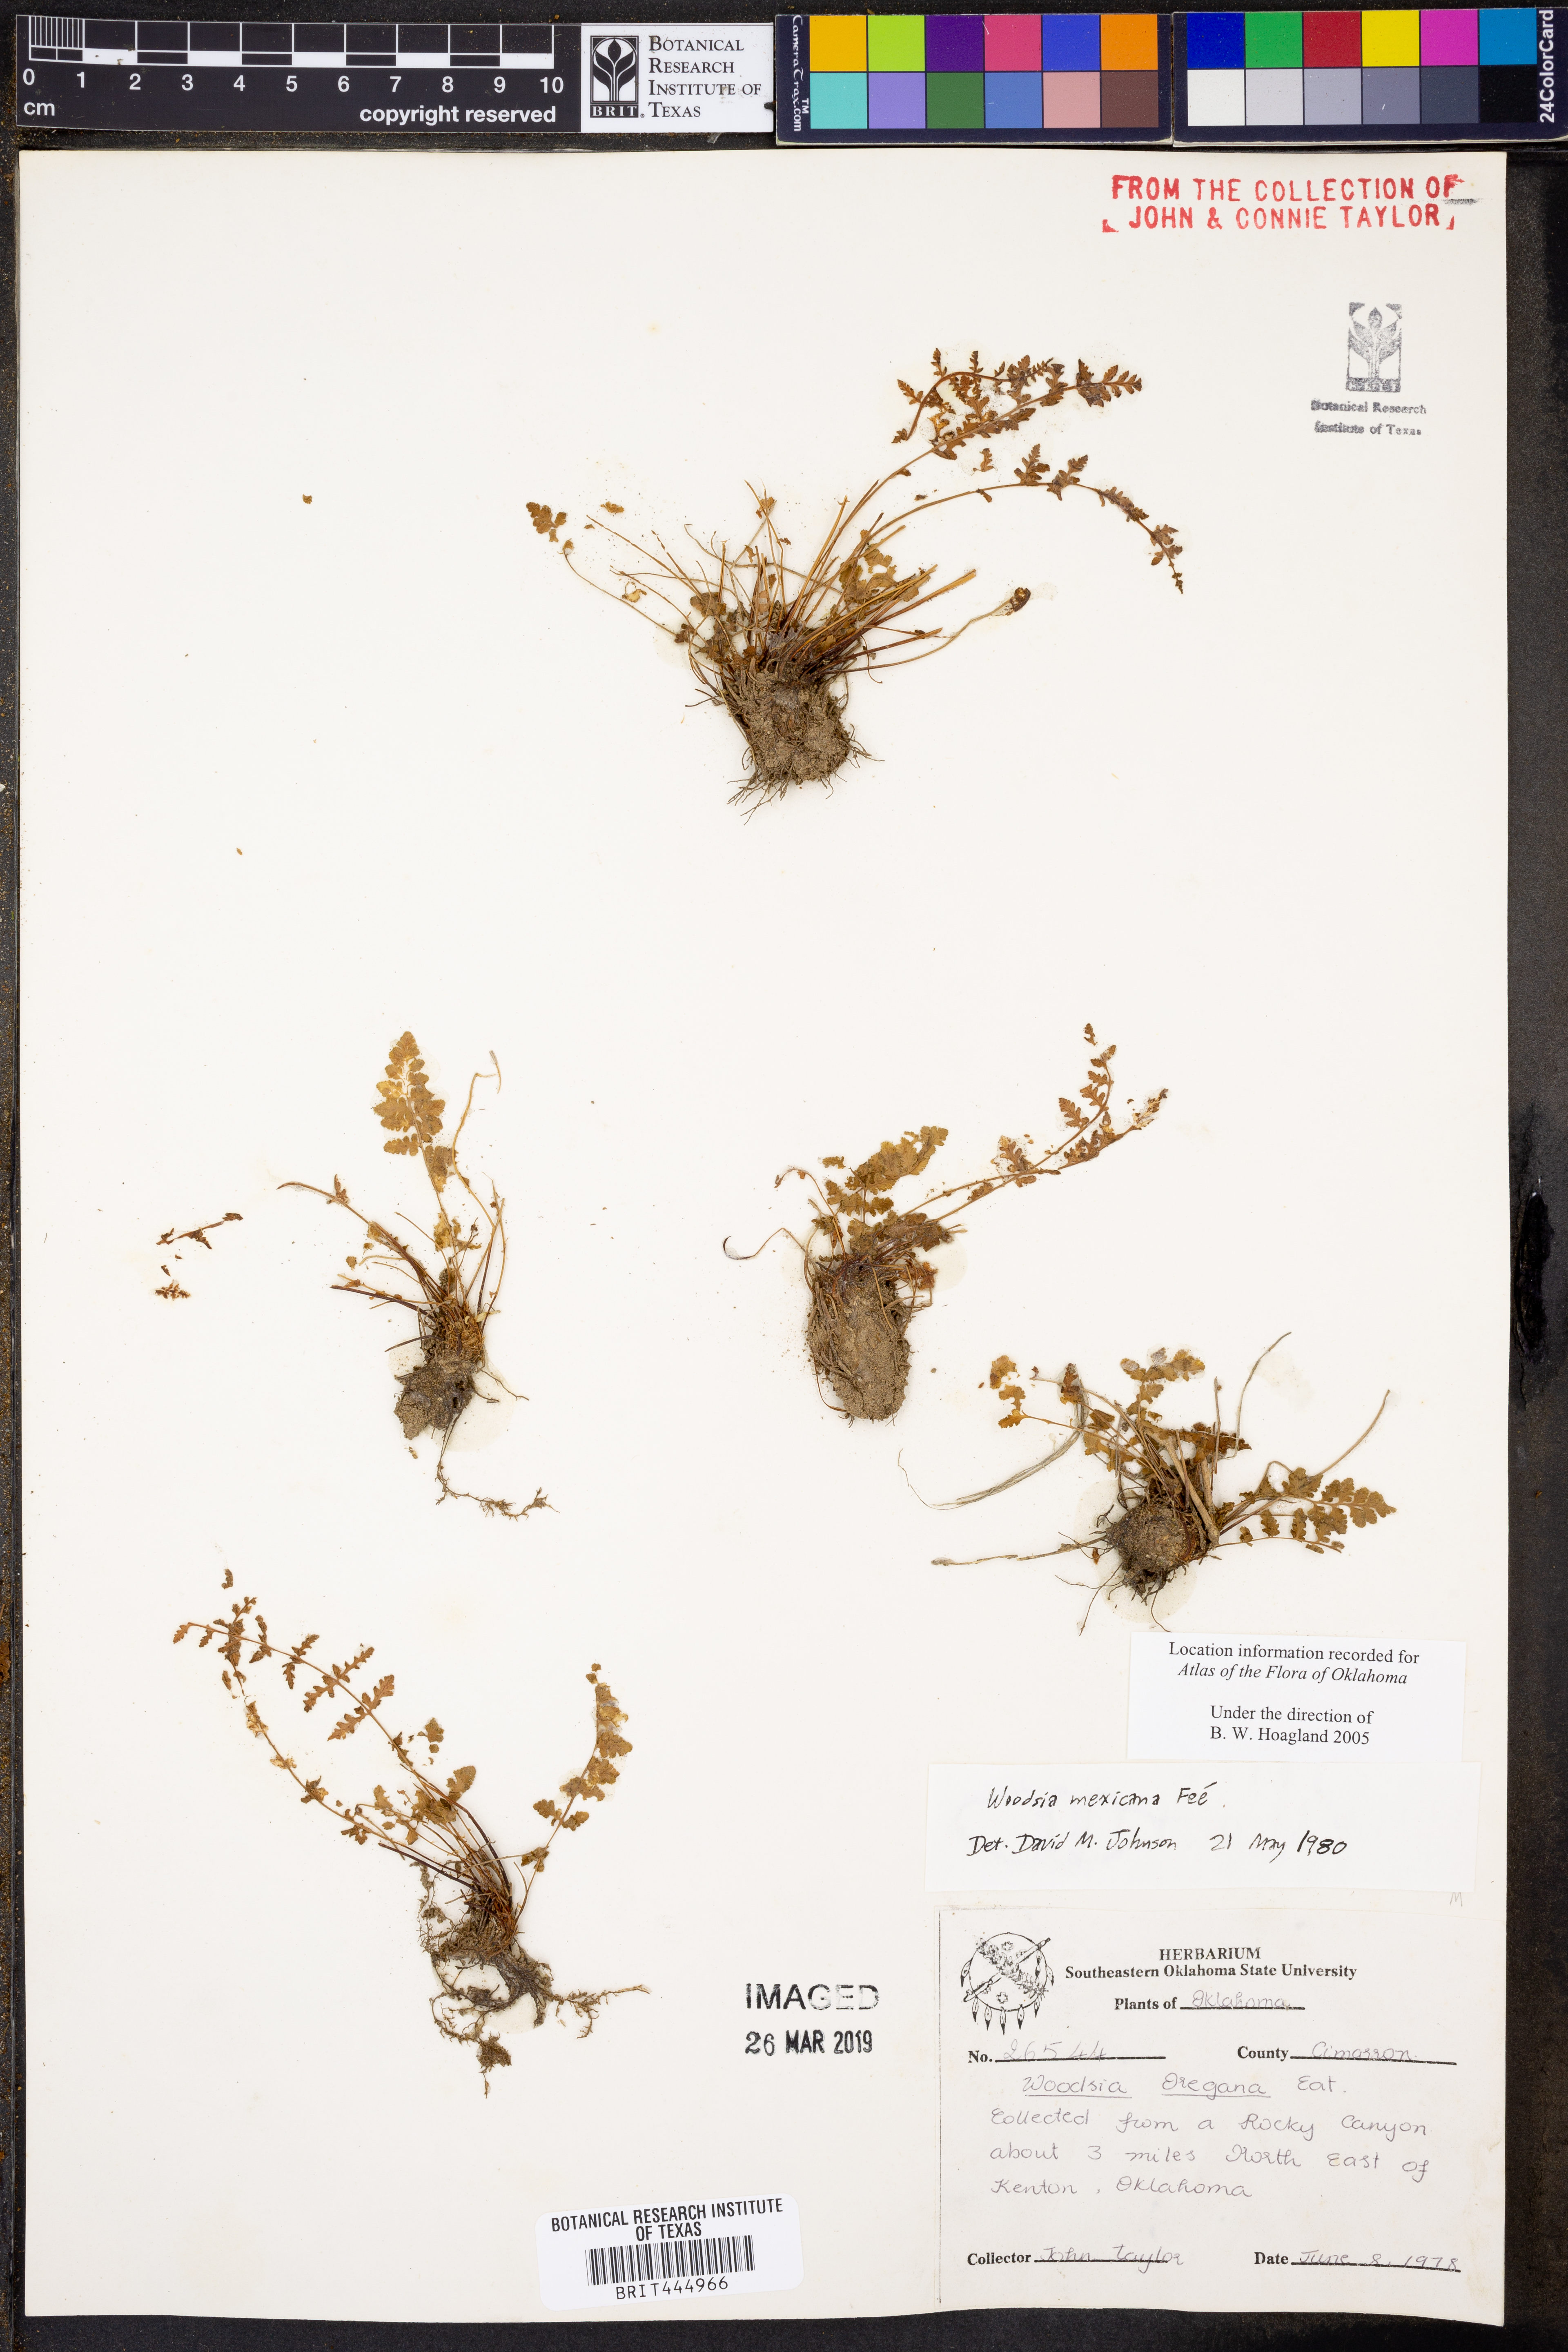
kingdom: Plantae
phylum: Tracheophyta
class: Polypodiopsida
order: Polypodiales
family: Woodsiaceae
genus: Physematium
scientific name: Physematium mexicanum
